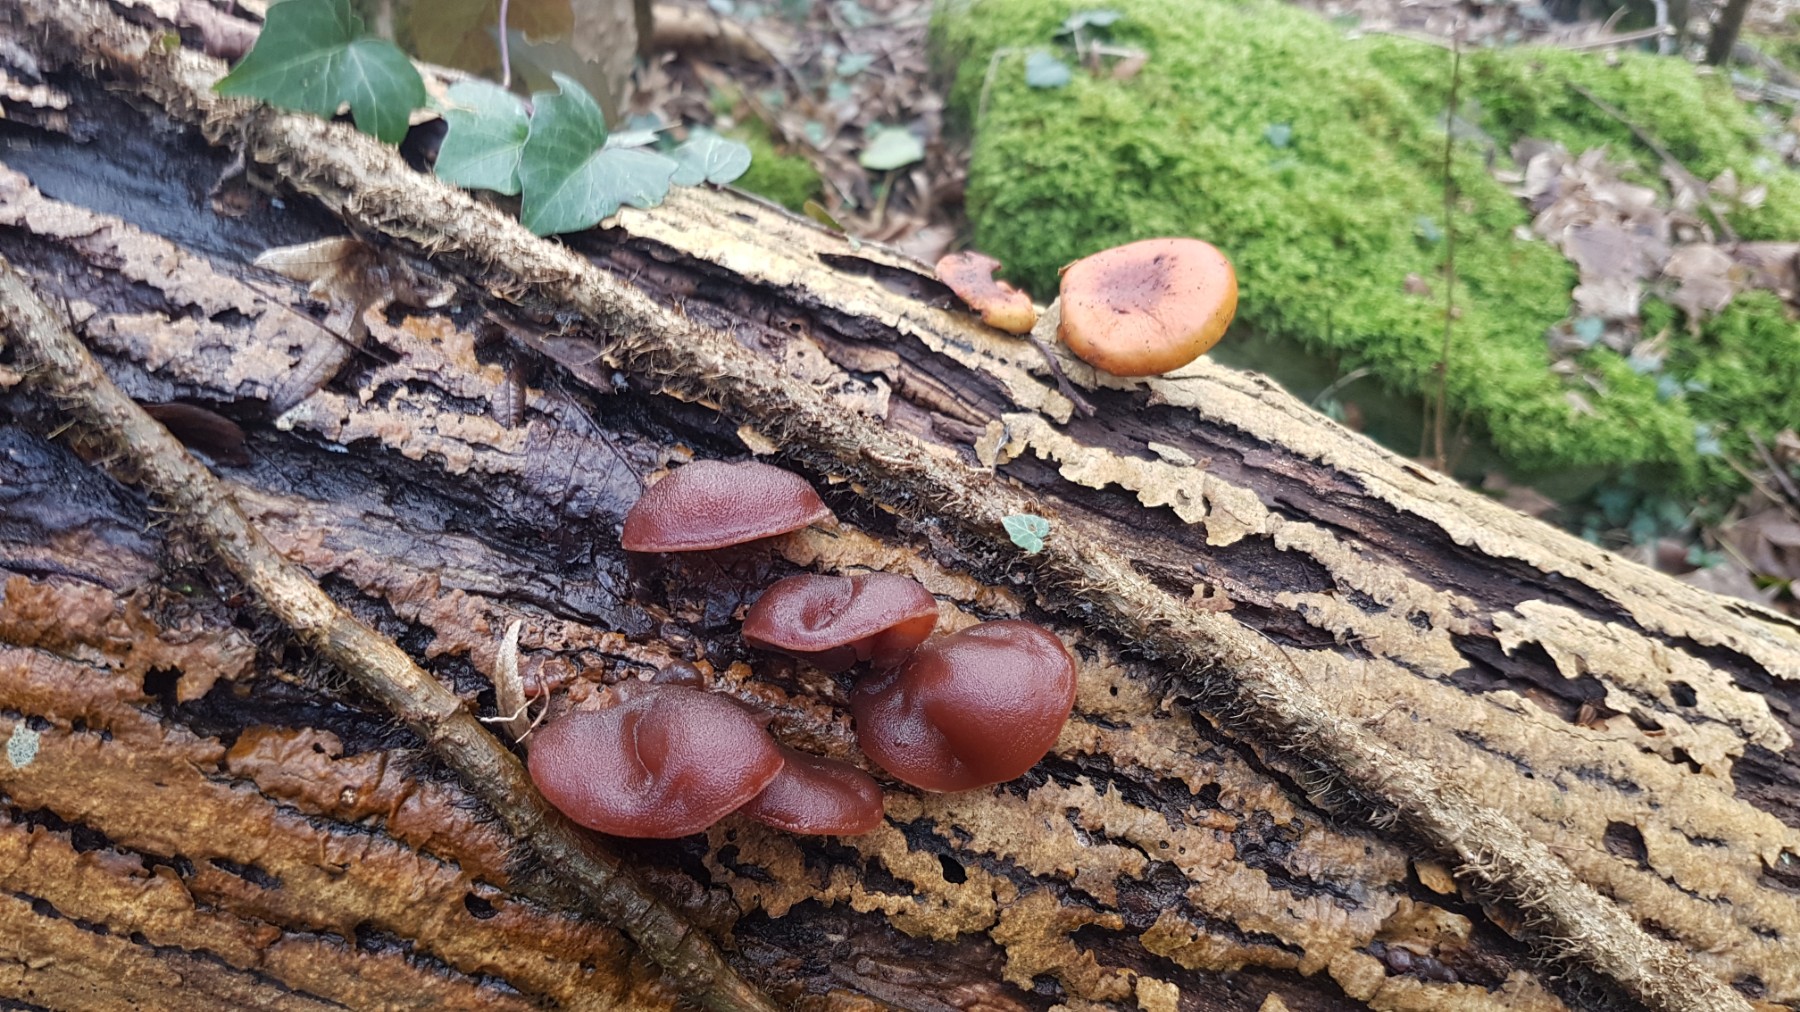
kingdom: Fungi
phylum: Basidiomycota
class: Agaricomycetes
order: Auriculariales
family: Auriculariaceae
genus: Auricularia
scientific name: Auricularia auricula-judae
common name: almindelig judasøre
